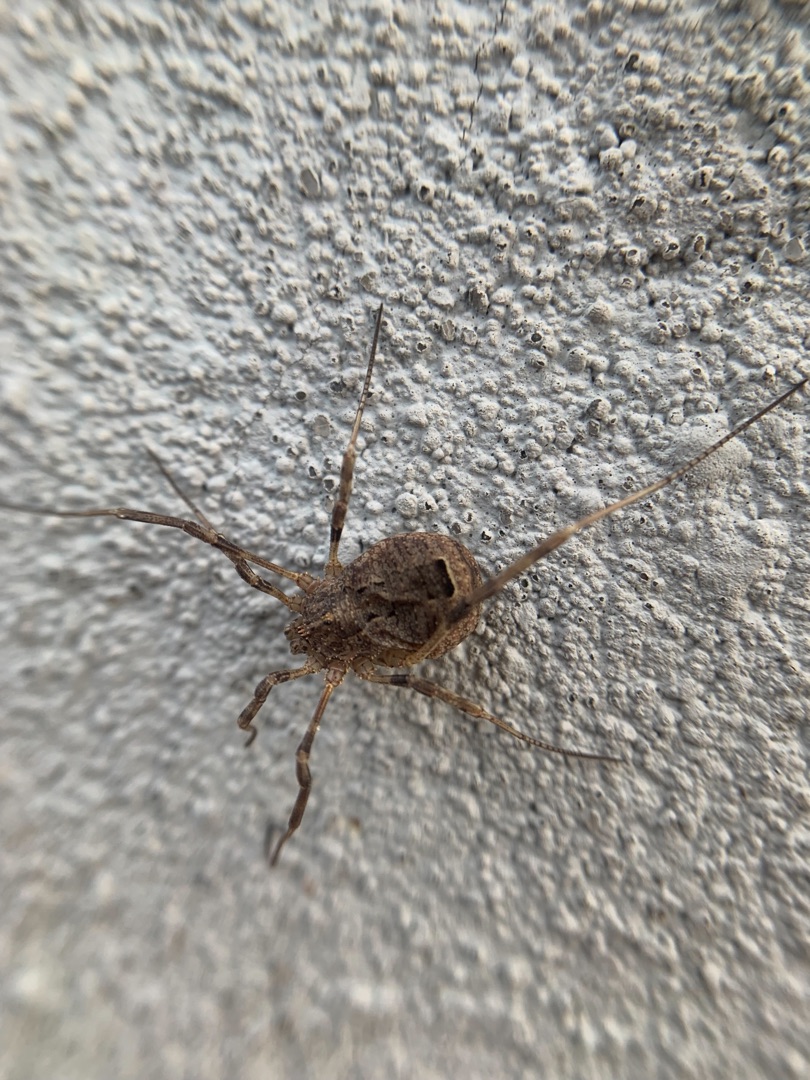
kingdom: Animalia
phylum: Arthropoda
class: Arachnida
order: Opiliones
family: Phalangiidae
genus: Odiellus
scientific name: Odiellus spinosus
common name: Kæmpemejer
